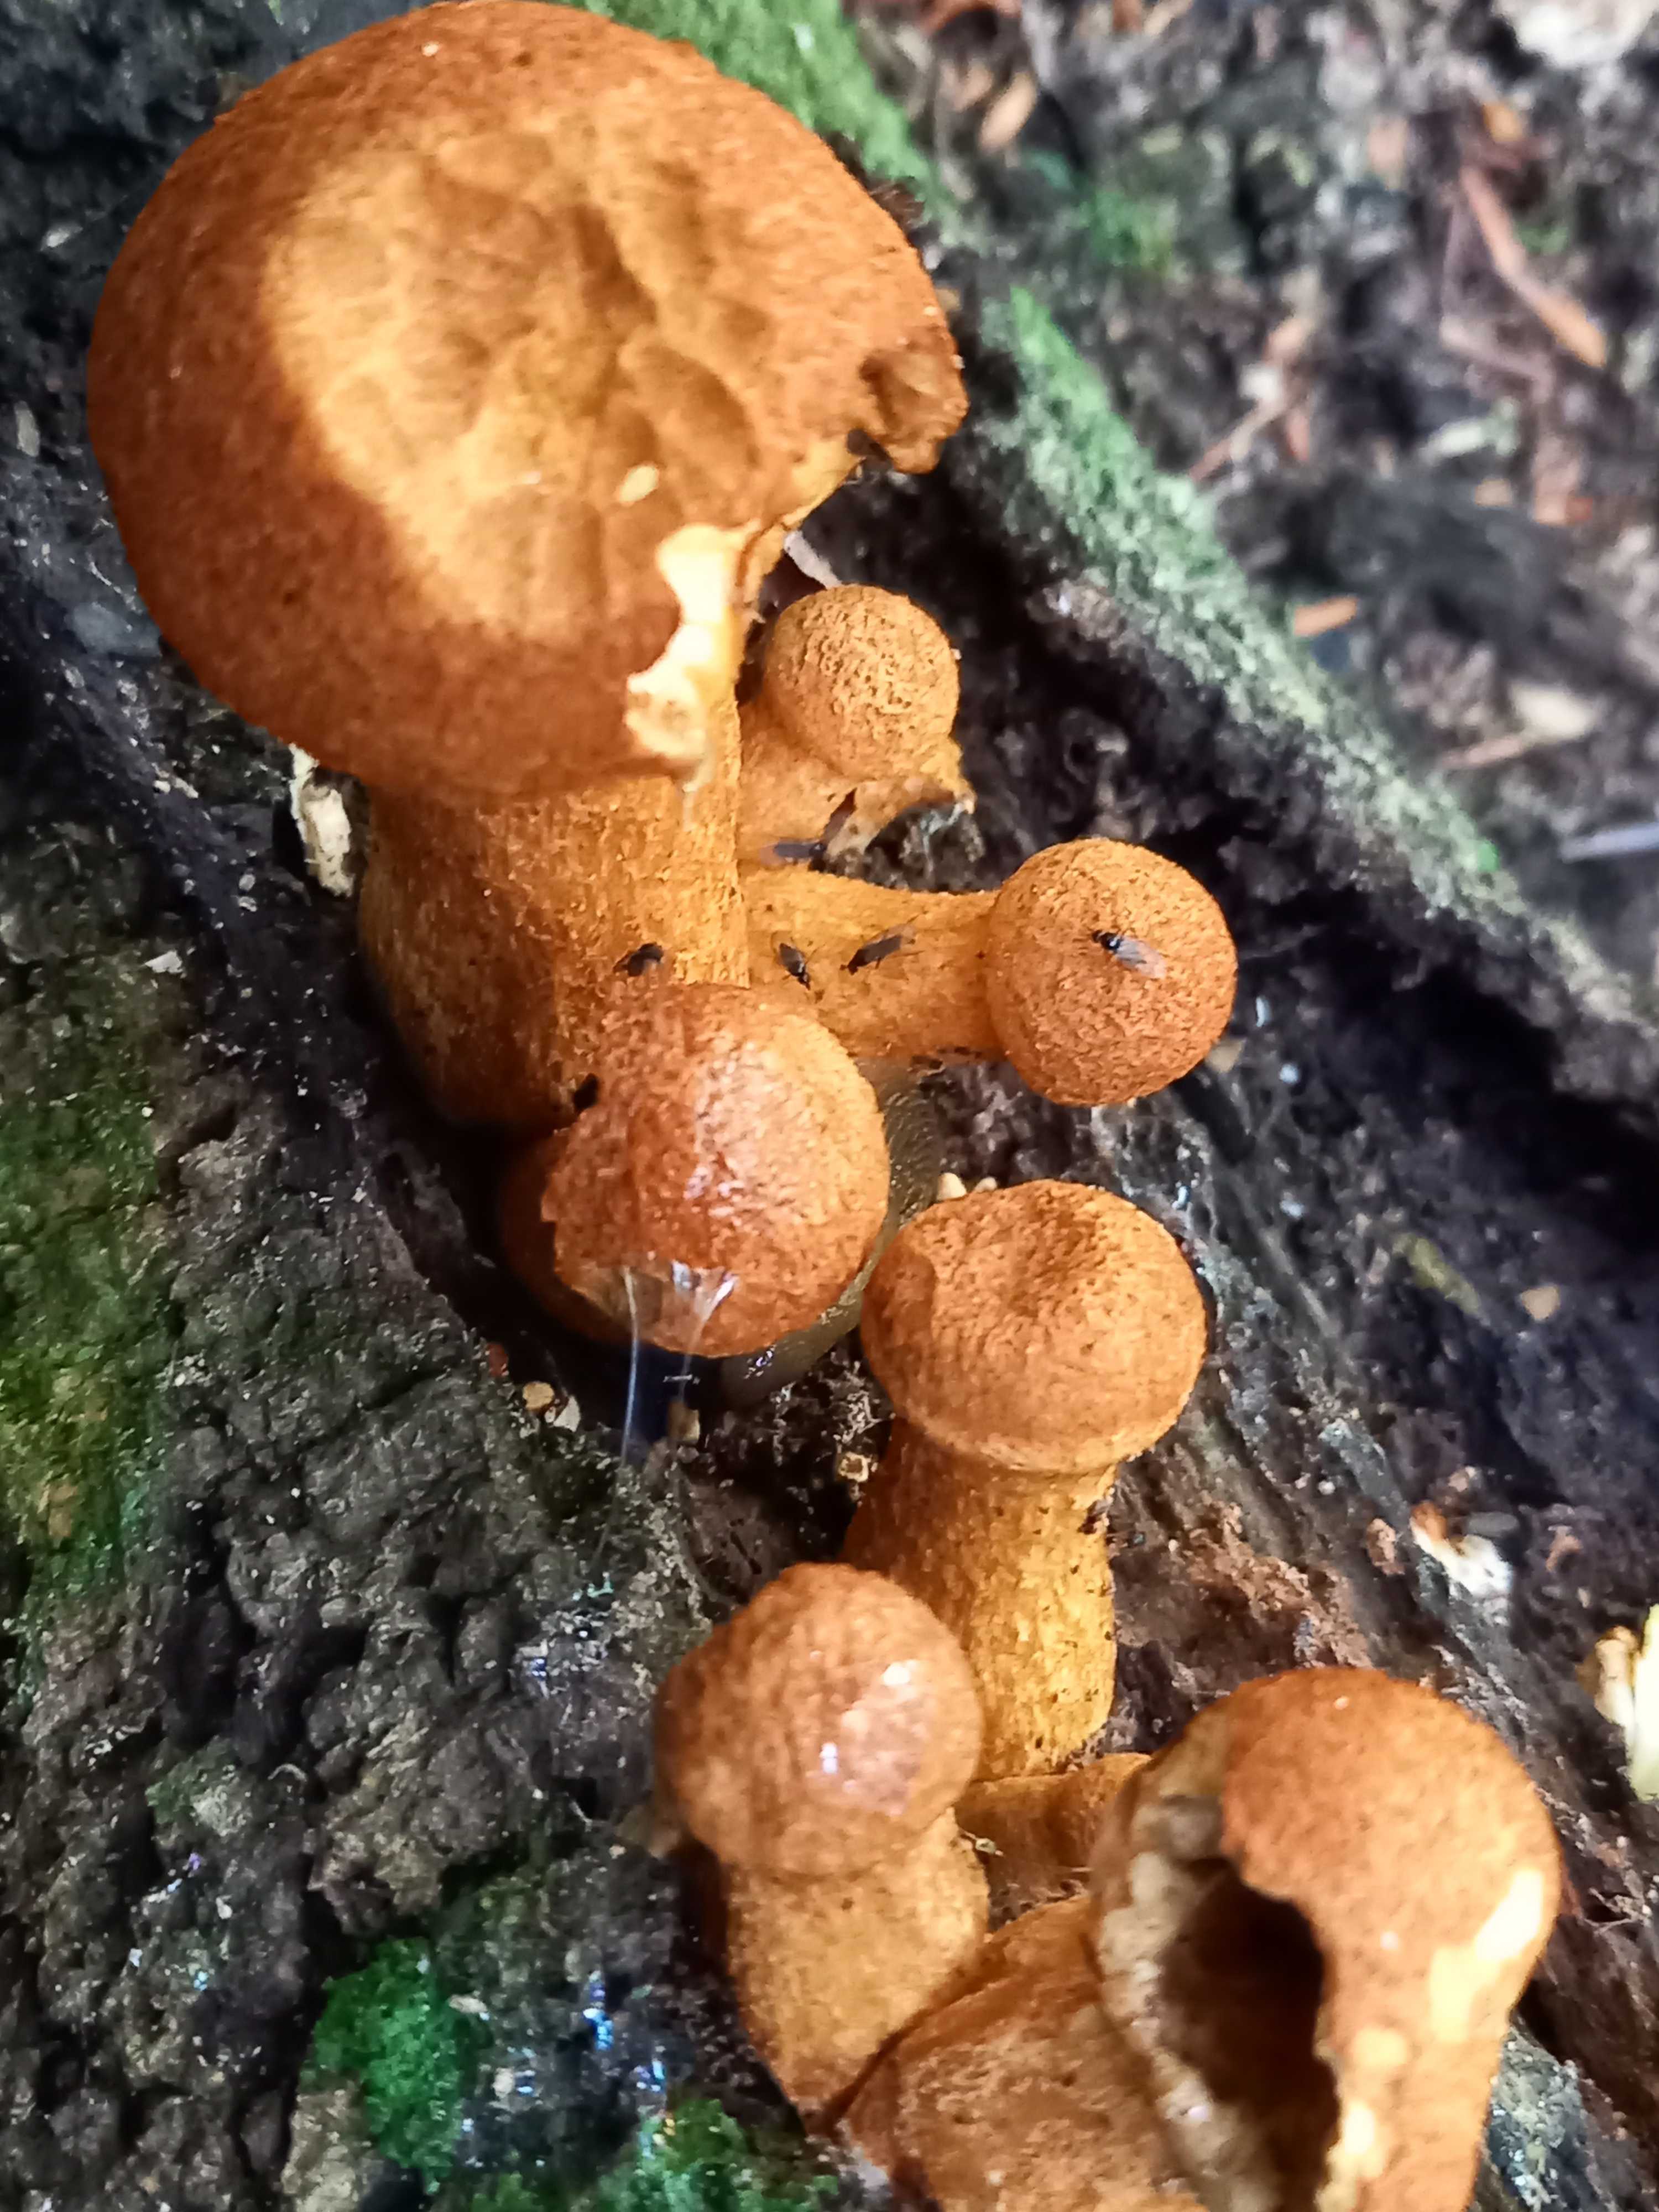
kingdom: Fungi
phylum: Basidiomycota
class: Agaricomycetes
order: Agaricales
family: Hymenogastraceae
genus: Gymnopilus
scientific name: Gymnopilus spectabilis
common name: fibret flammehat
